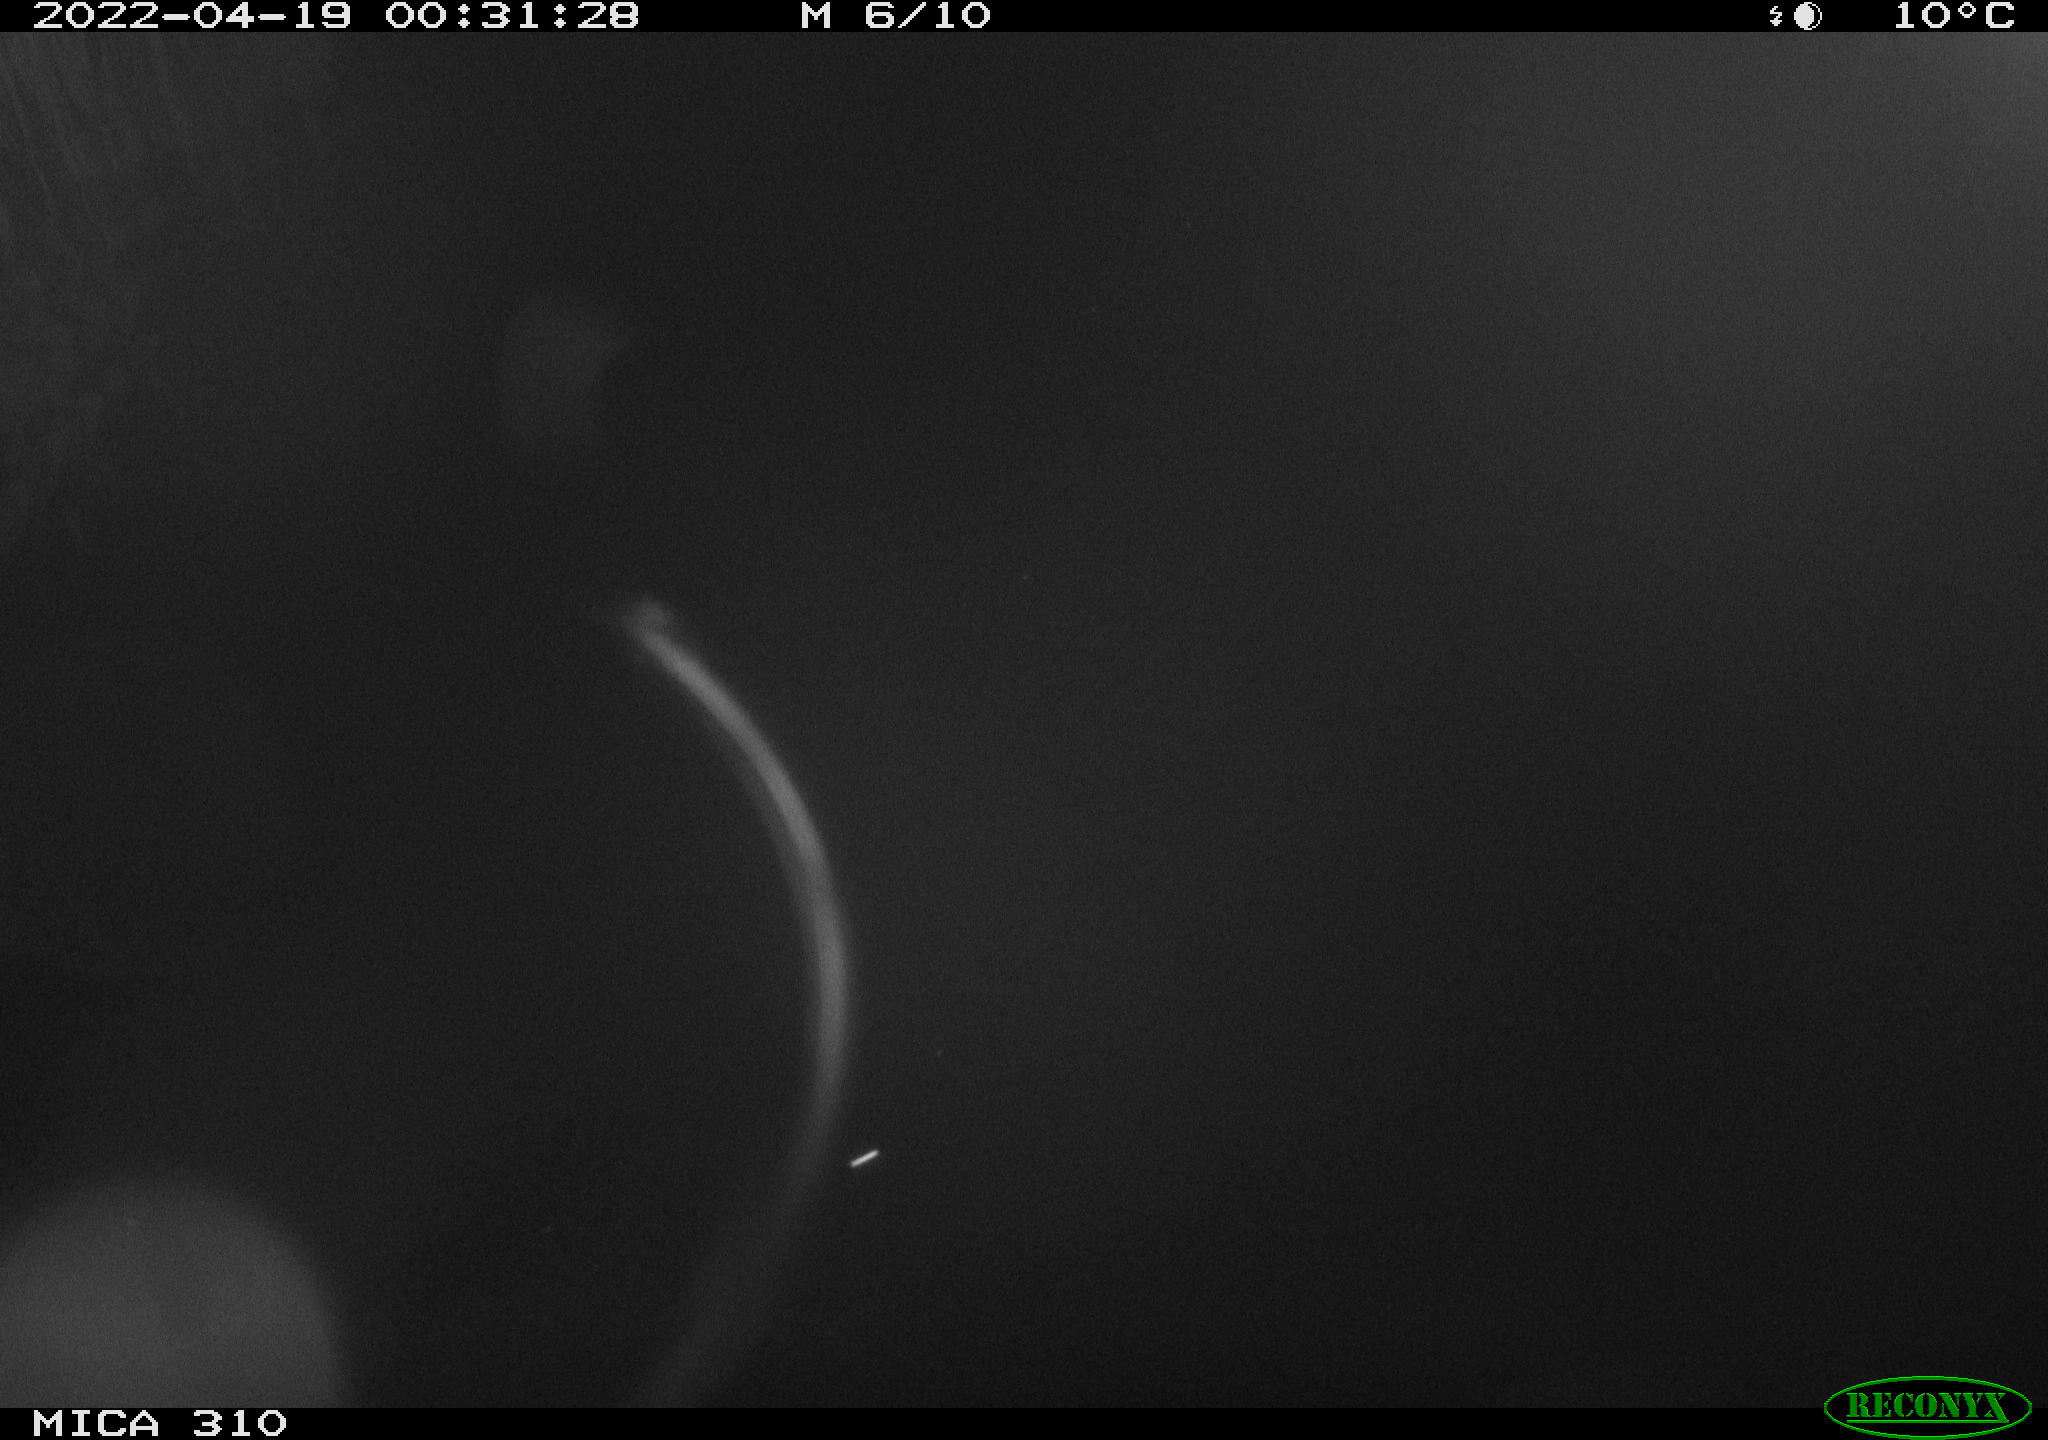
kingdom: Animalia
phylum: Chordata
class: Aves
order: Anseriformes
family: Anatidae
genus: Anas
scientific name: Anas platyrhynchos
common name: Mallard
